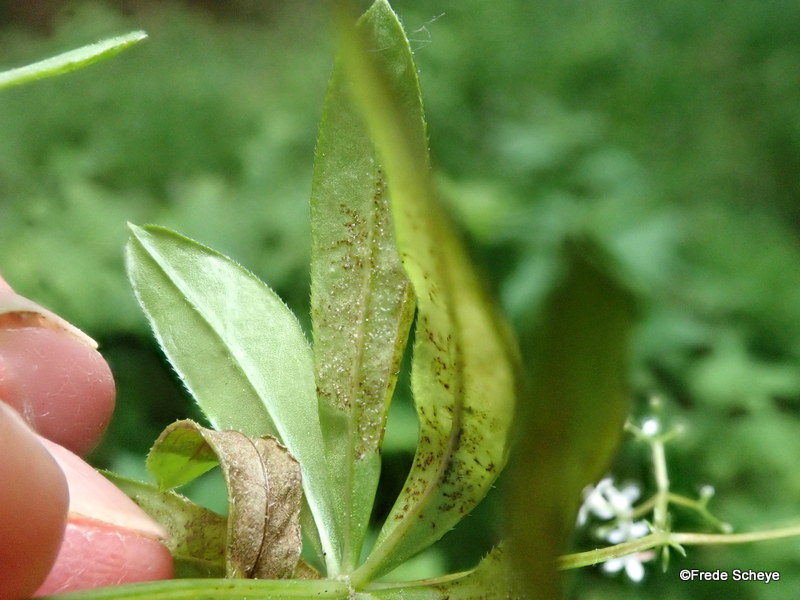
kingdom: Chromista
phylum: Oomycota
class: Peronosporea
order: Peronosporales
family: Peronosporaceae
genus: Peronospora
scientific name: Peronospora calotheca
